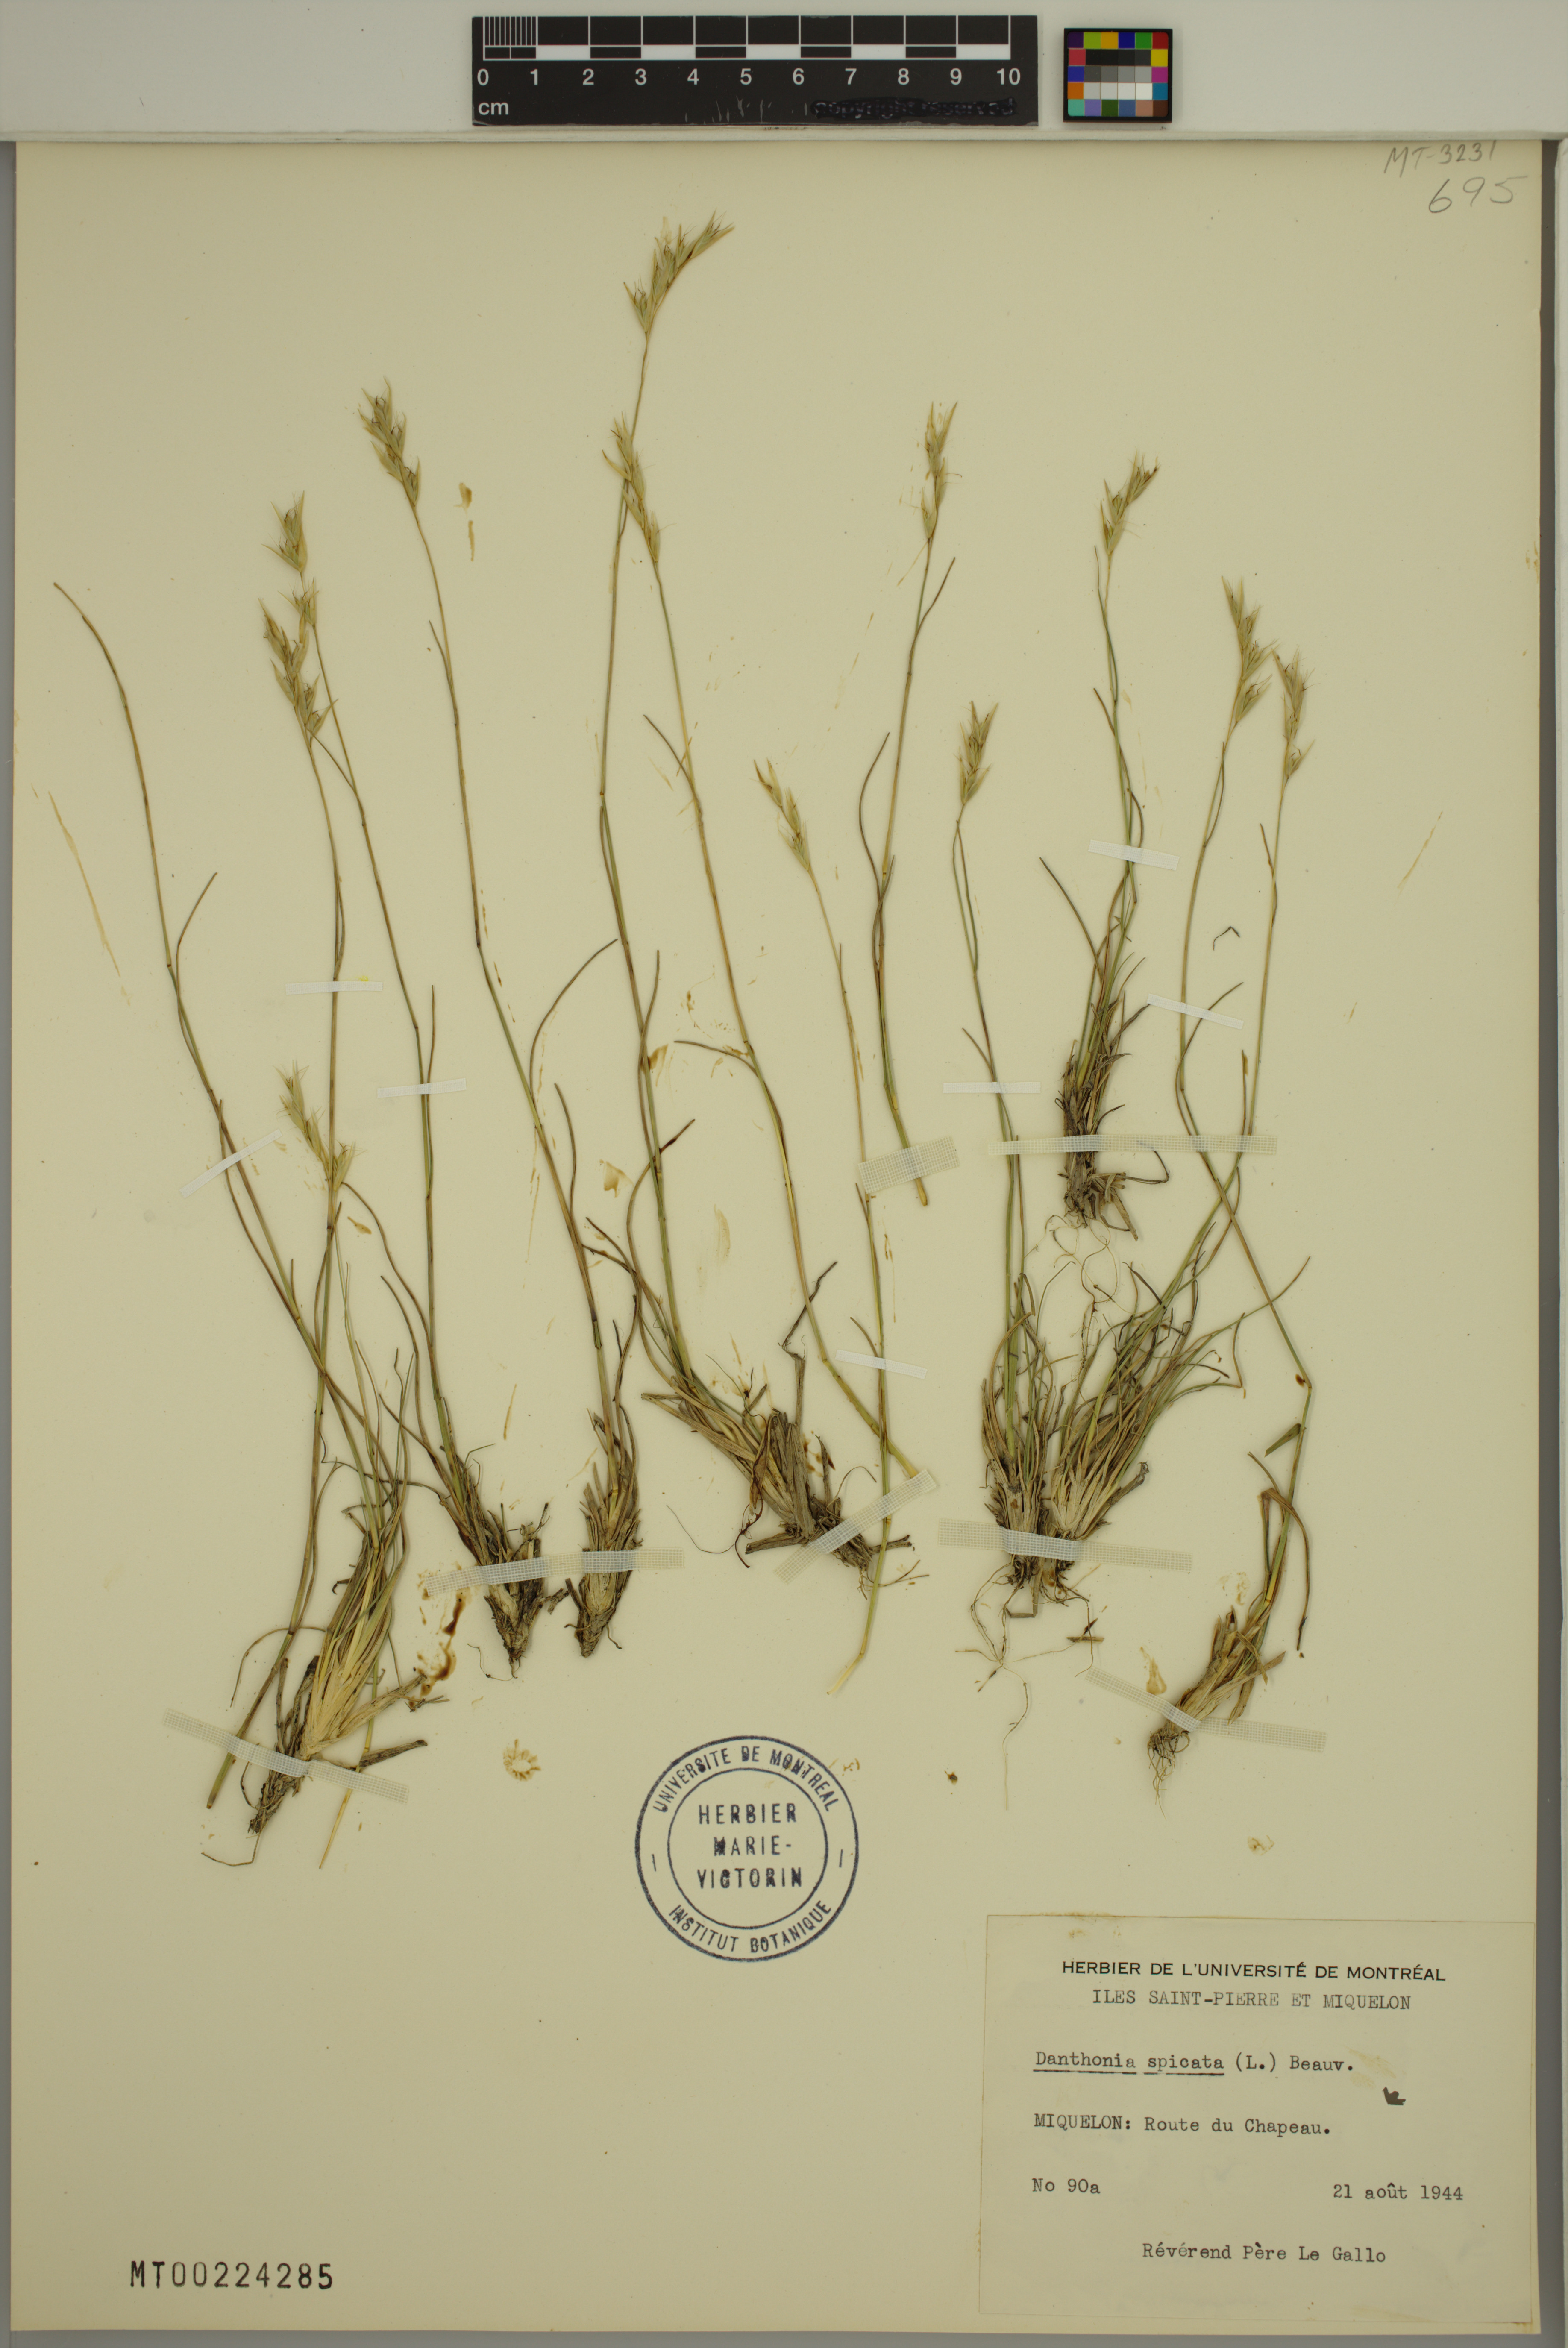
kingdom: Plantae
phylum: Tracheophyta
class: Liliopsida
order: Poales
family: Poaceae
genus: Danthonia
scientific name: Danthonia spicata
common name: Common wild oatgrass
